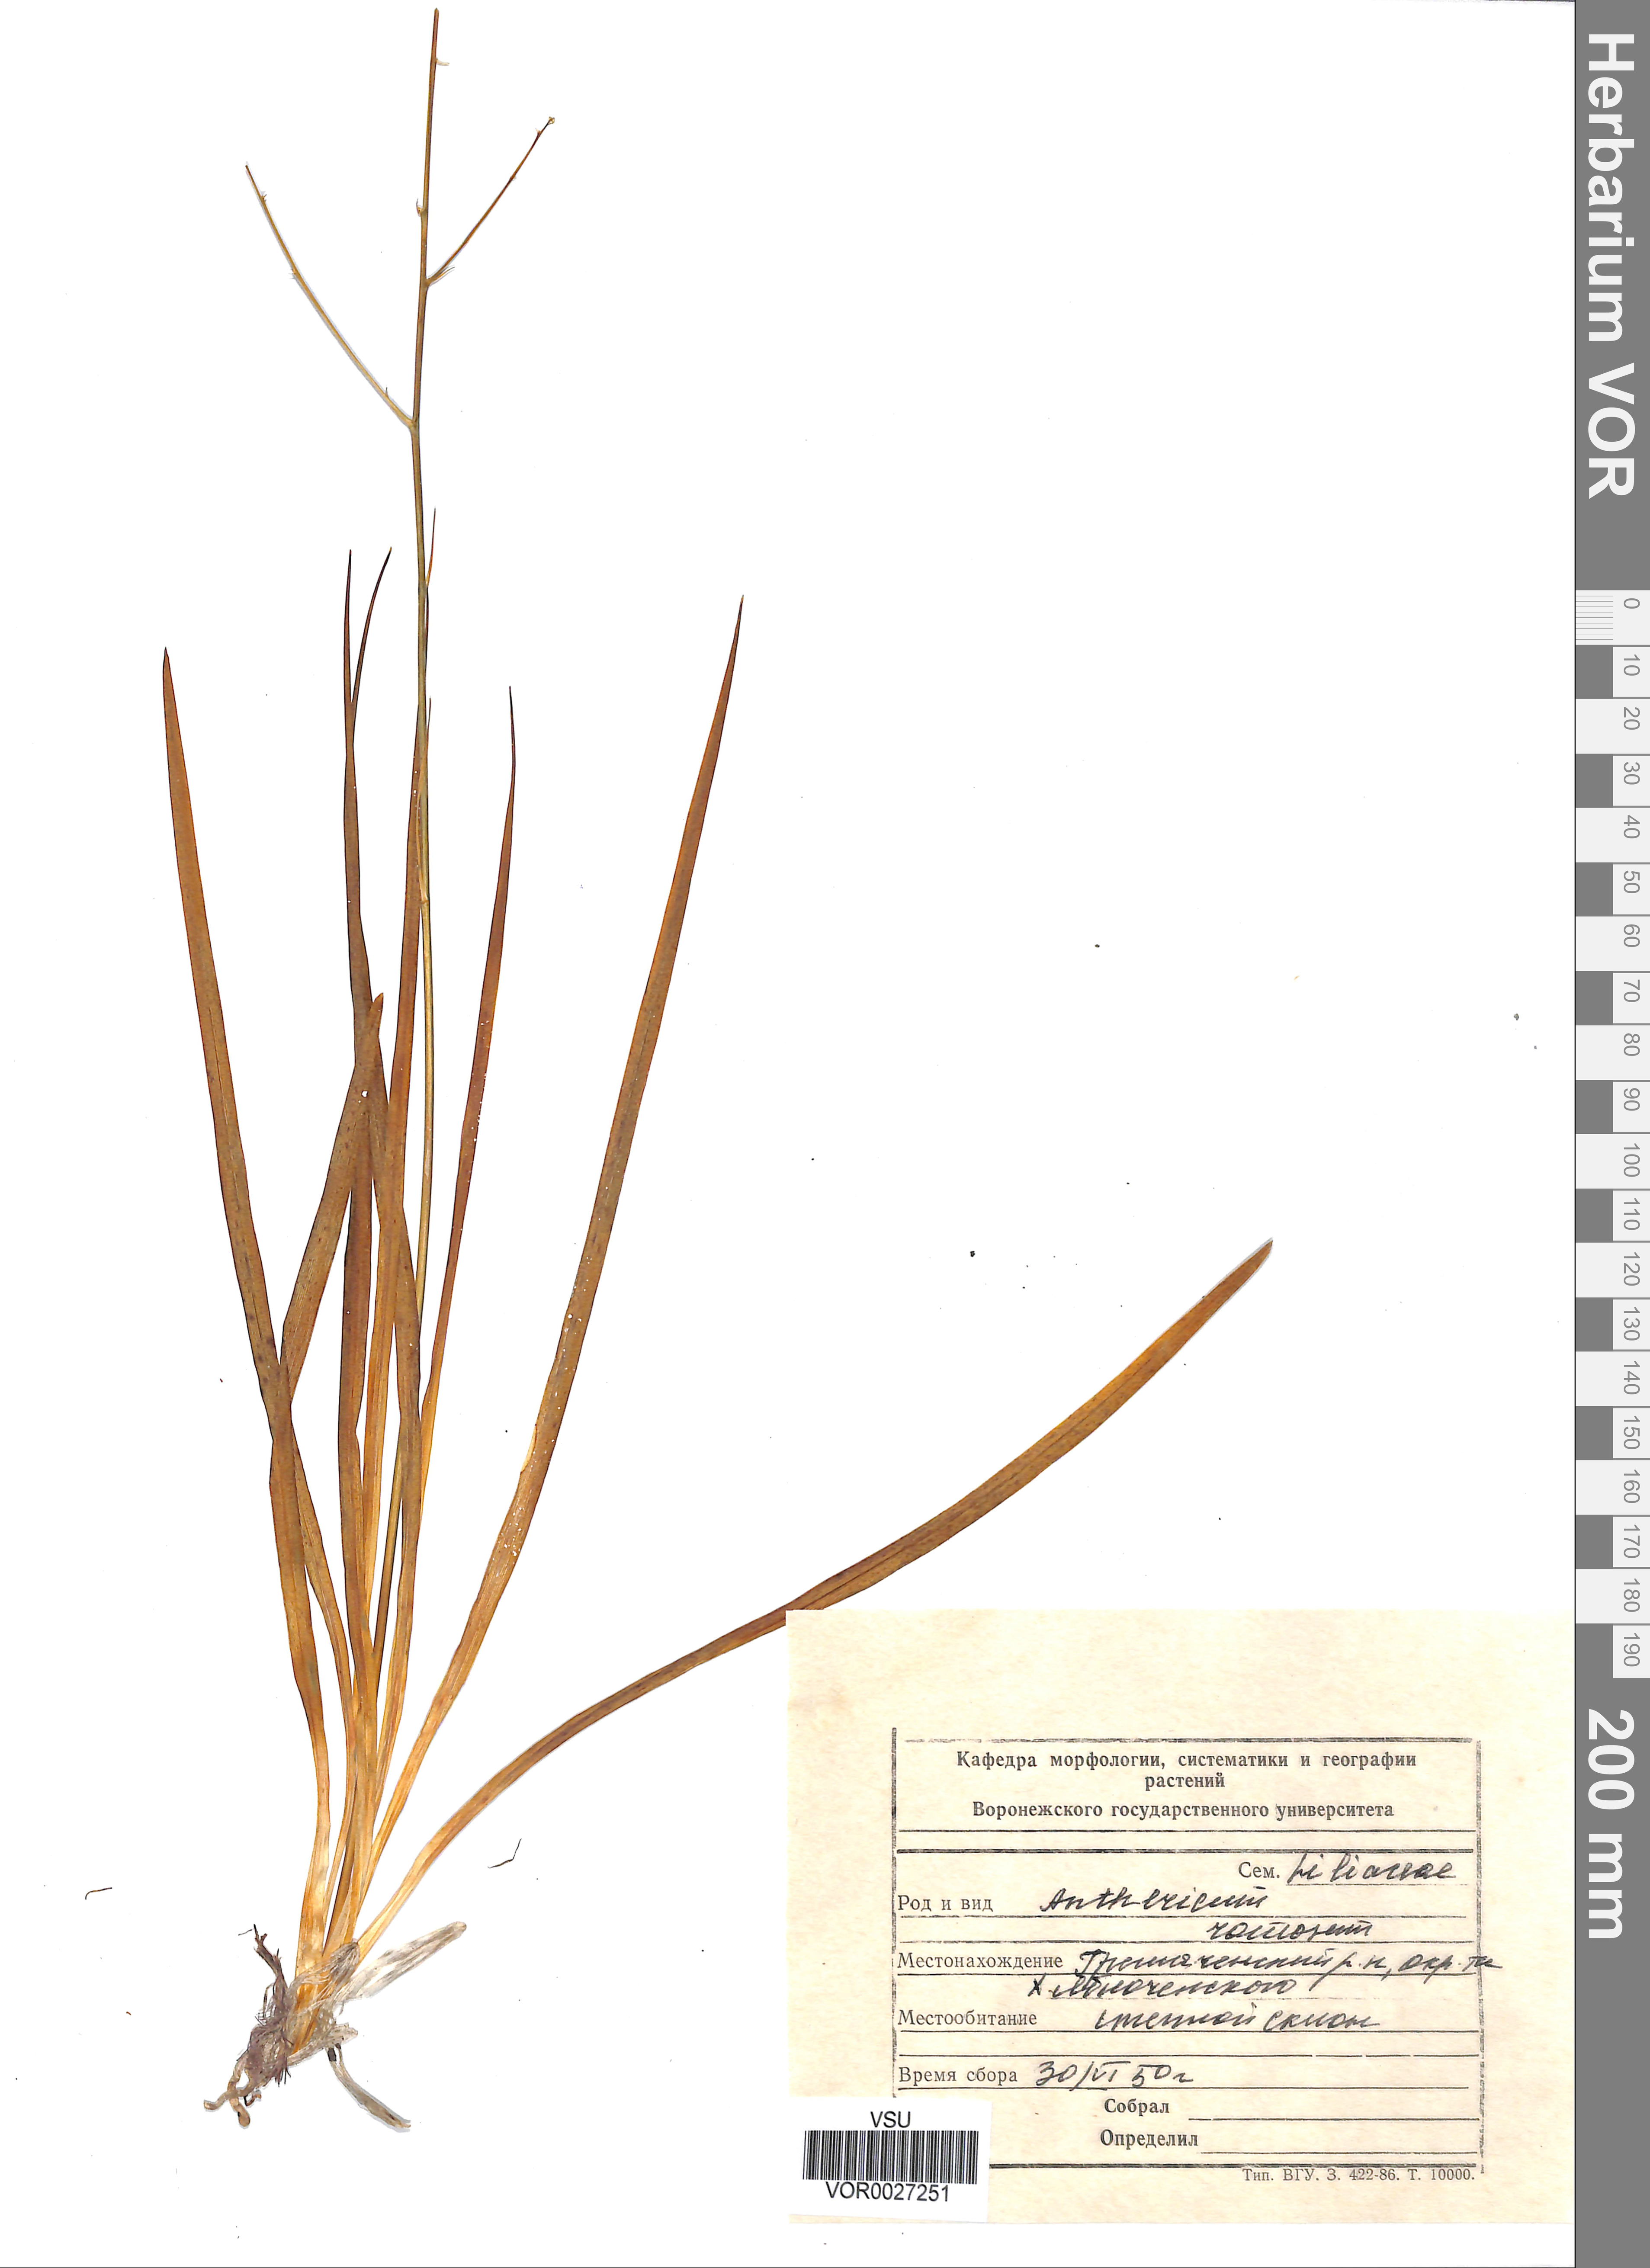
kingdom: Plantae
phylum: Tracheophyta
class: Liliopsida
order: Asparagales
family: Asparagaceae
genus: Anthericum
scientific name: Anthericum ramosum
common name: Branched st. bernard's-lily
